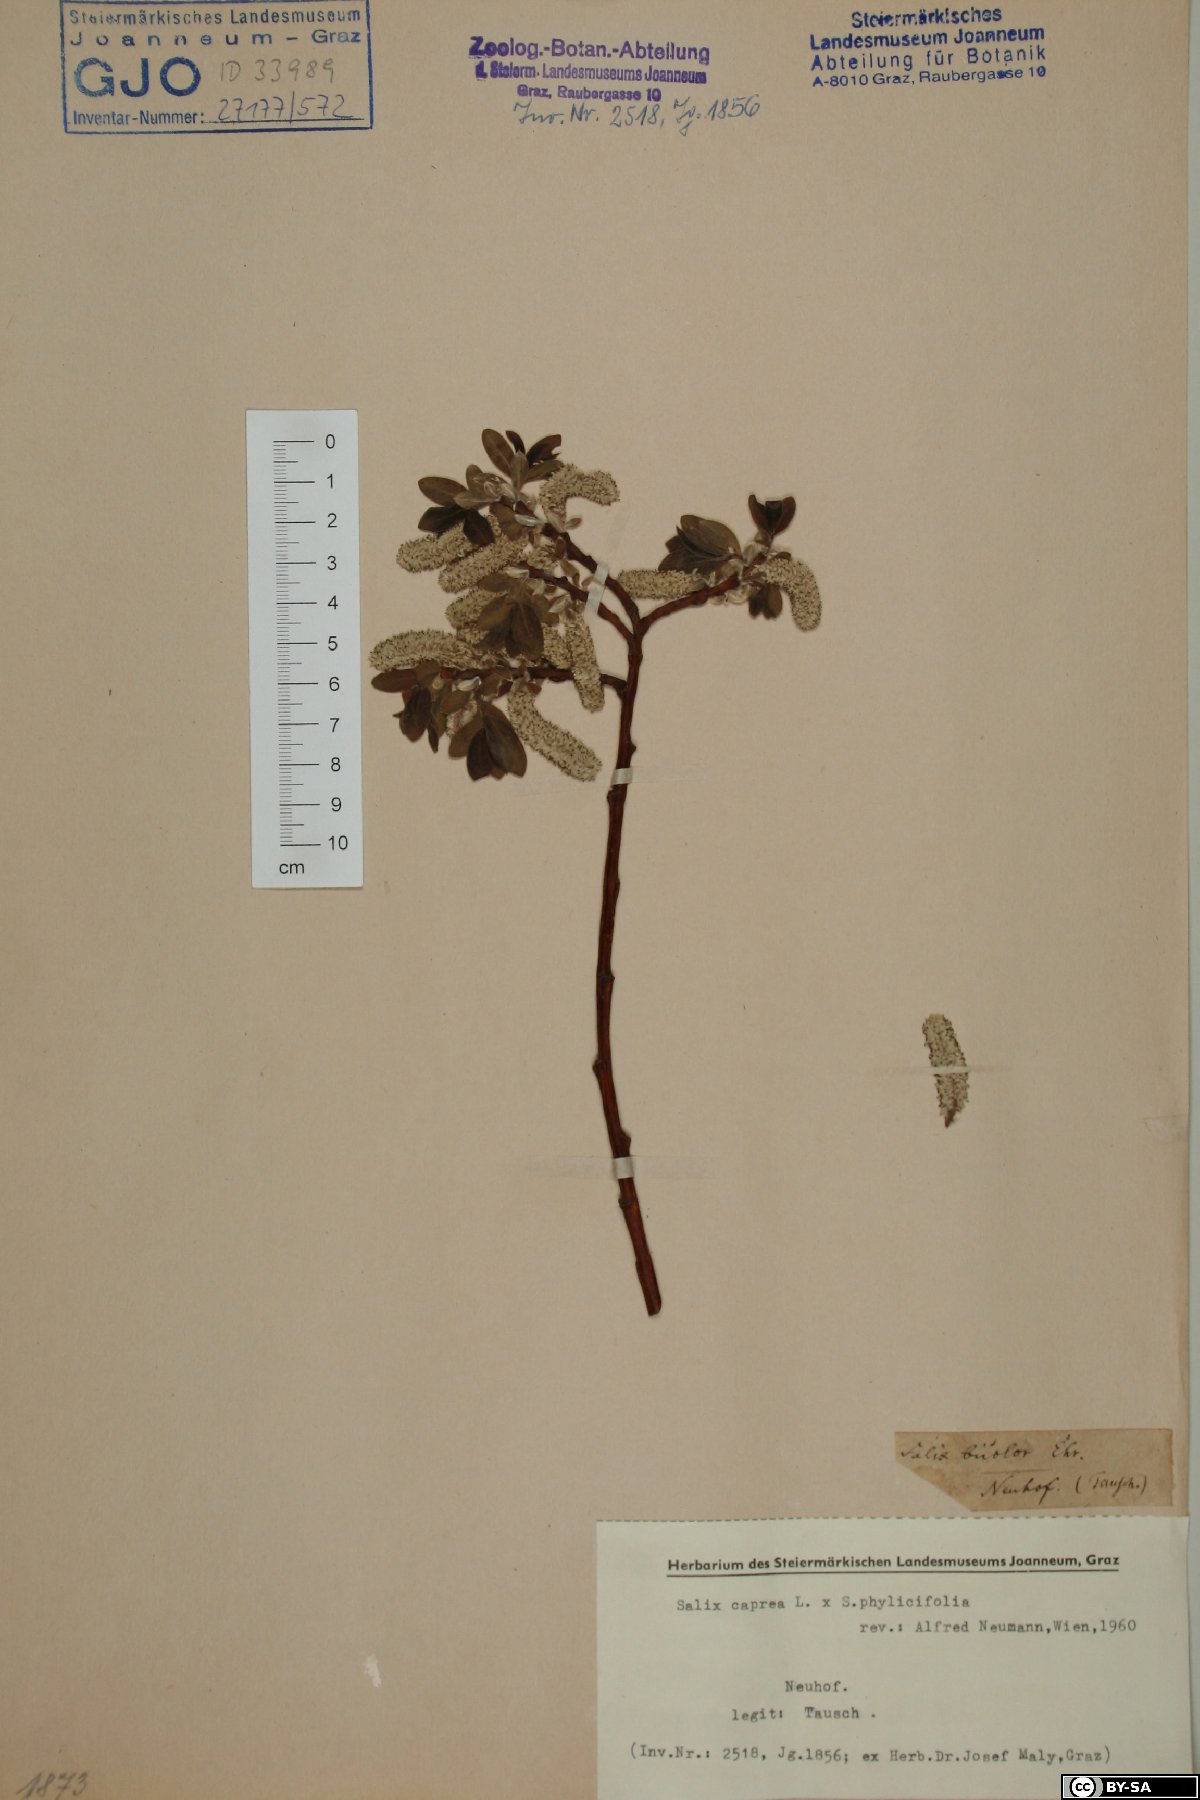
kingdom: Plantae
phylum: Tracheophyta
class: Magnoliopsida
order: Malpighiales
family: Salicaceae
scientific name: Salicaceae
